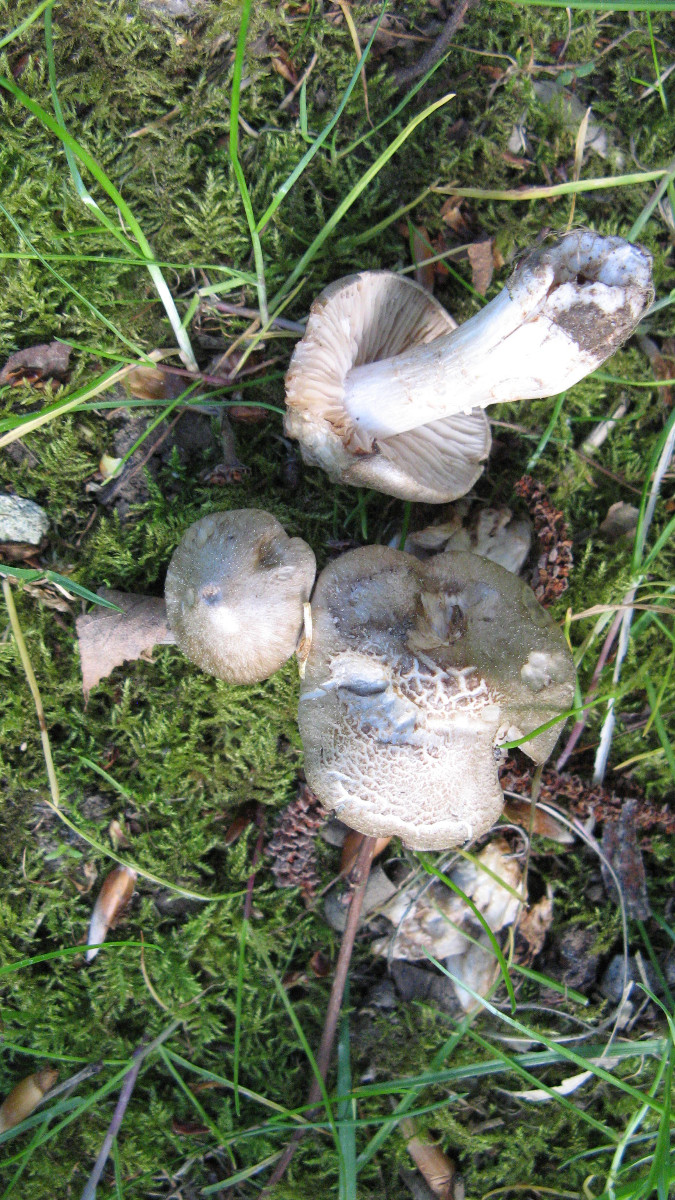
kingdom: Fungi
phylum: Basidiomycota
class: Agaricomycetes
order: Agaricales
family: Entolomataceae
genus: Entoloma
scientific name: Entoloma
